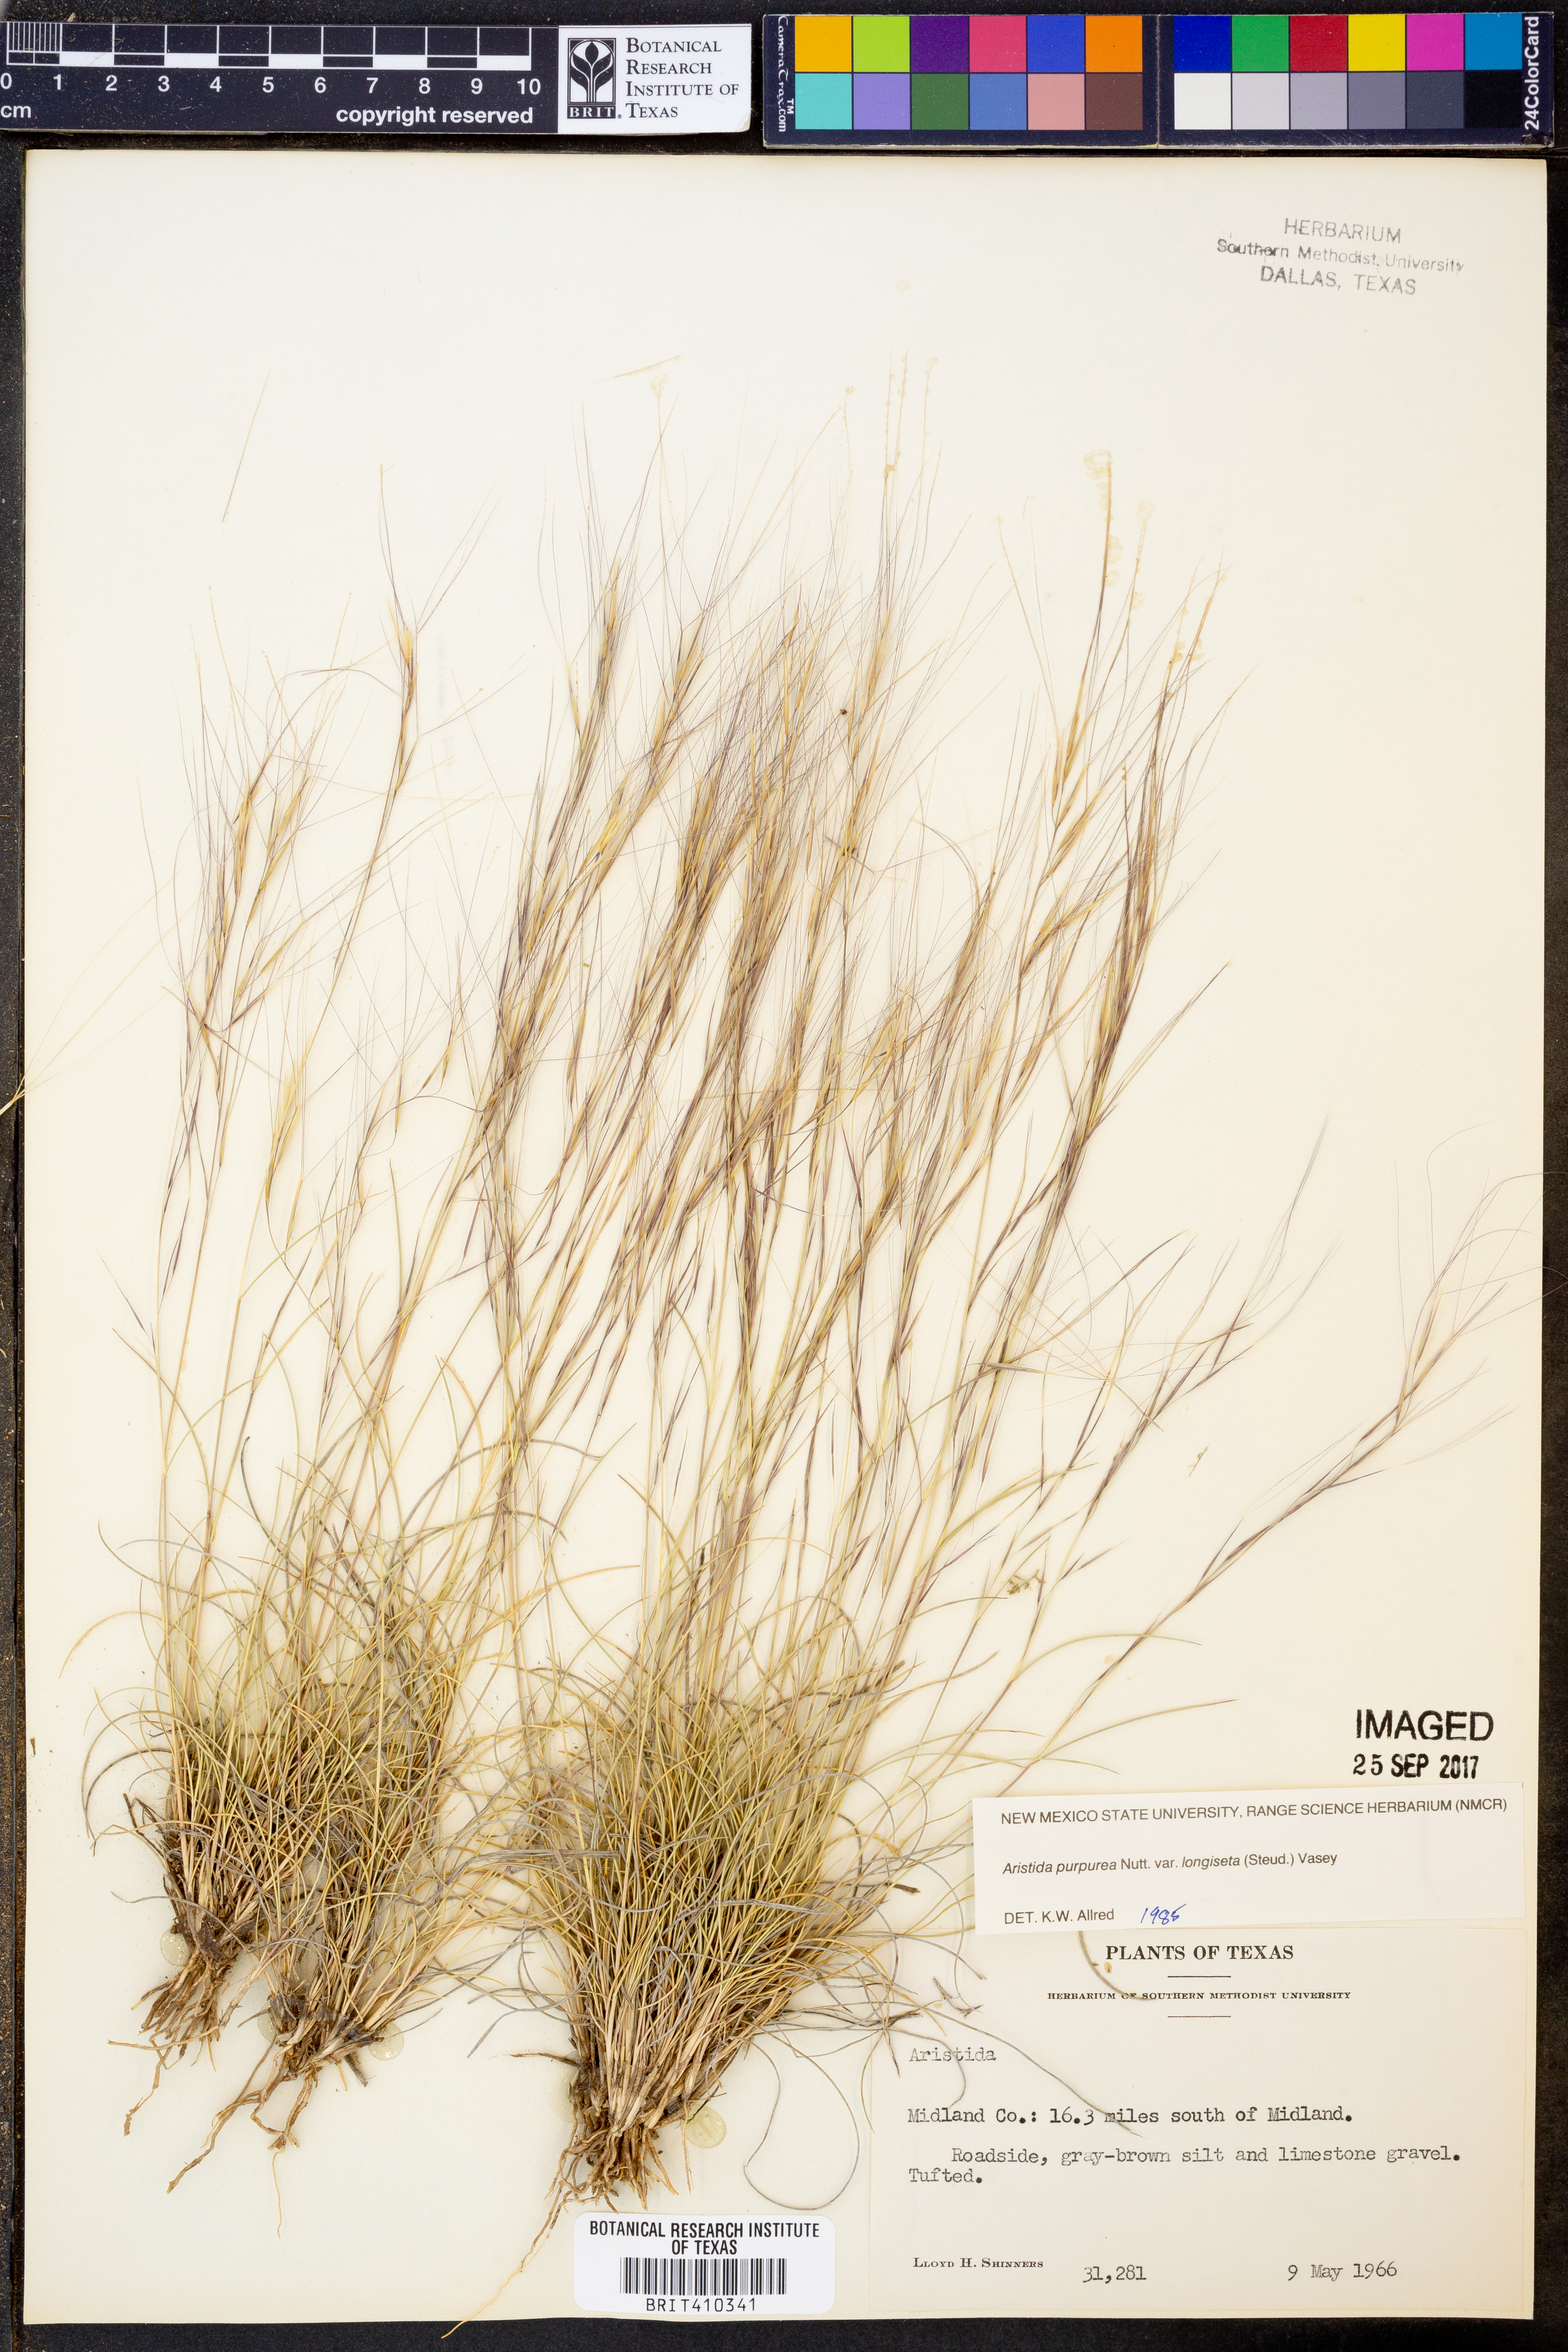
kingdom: Plantae
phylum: Tracheophyta
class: Liliopsida
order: Poales
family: Poaceae
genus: Aristida
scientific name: Aristida longiseta
